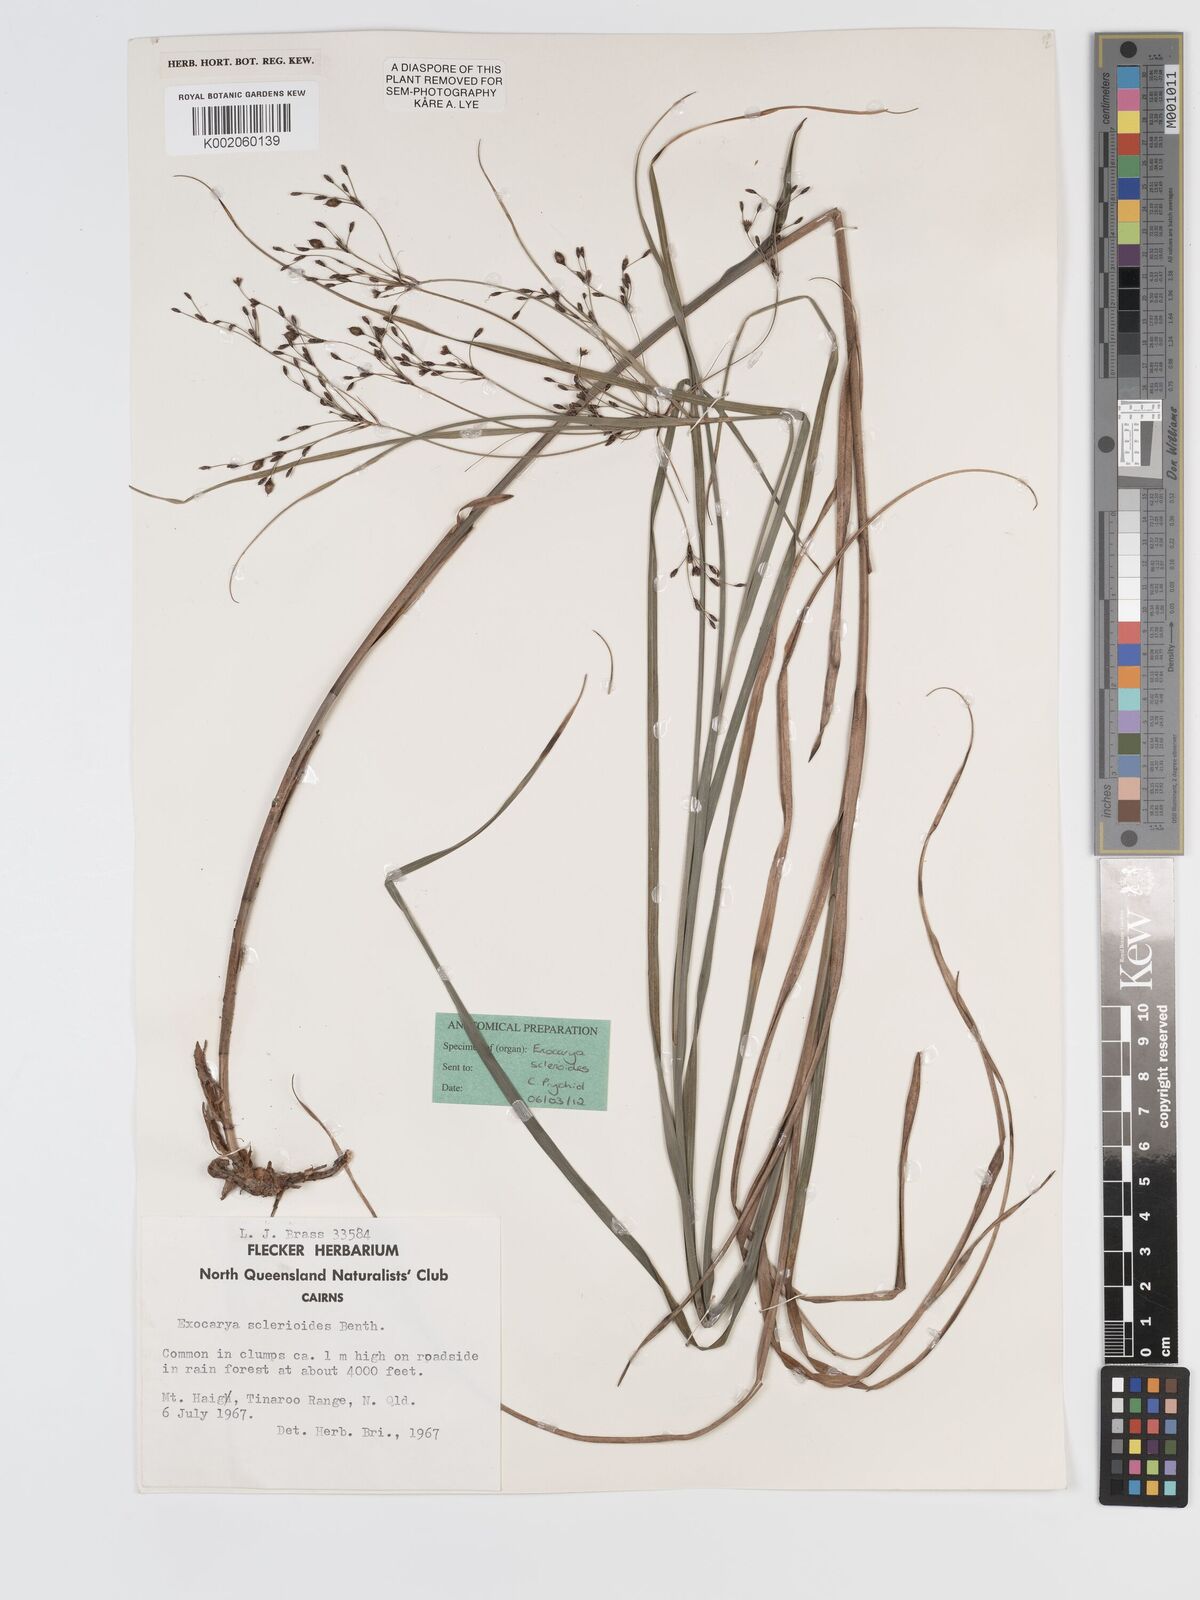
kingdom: Plantae
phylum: Tracheophyta
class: Liliopsida
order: Poales
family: Cyperaceae
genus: Exocarya
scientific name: Exocarya sclerioides
